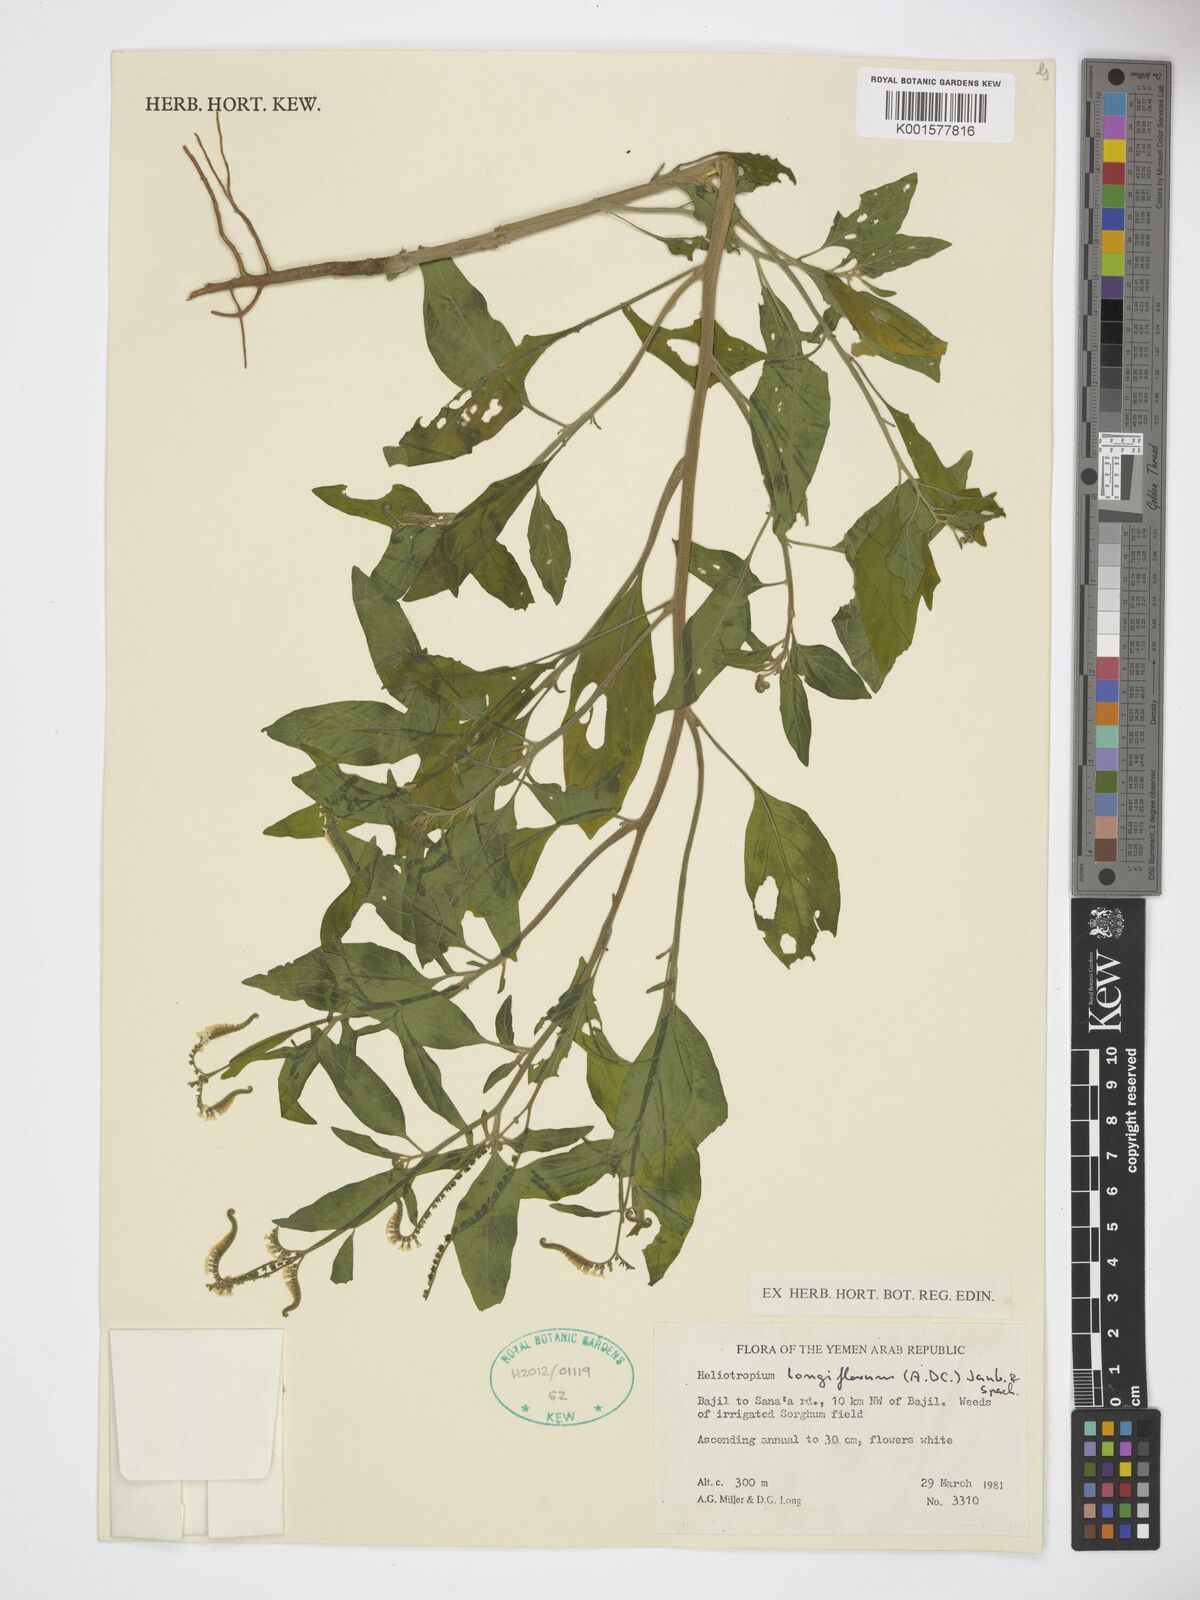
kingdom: Plantae
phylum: Tracheophyta
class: Magnoliopsida
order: Boraginales
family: Heliotropiaceae
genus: Heliotropium
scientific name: Heliotropium longiflorum
